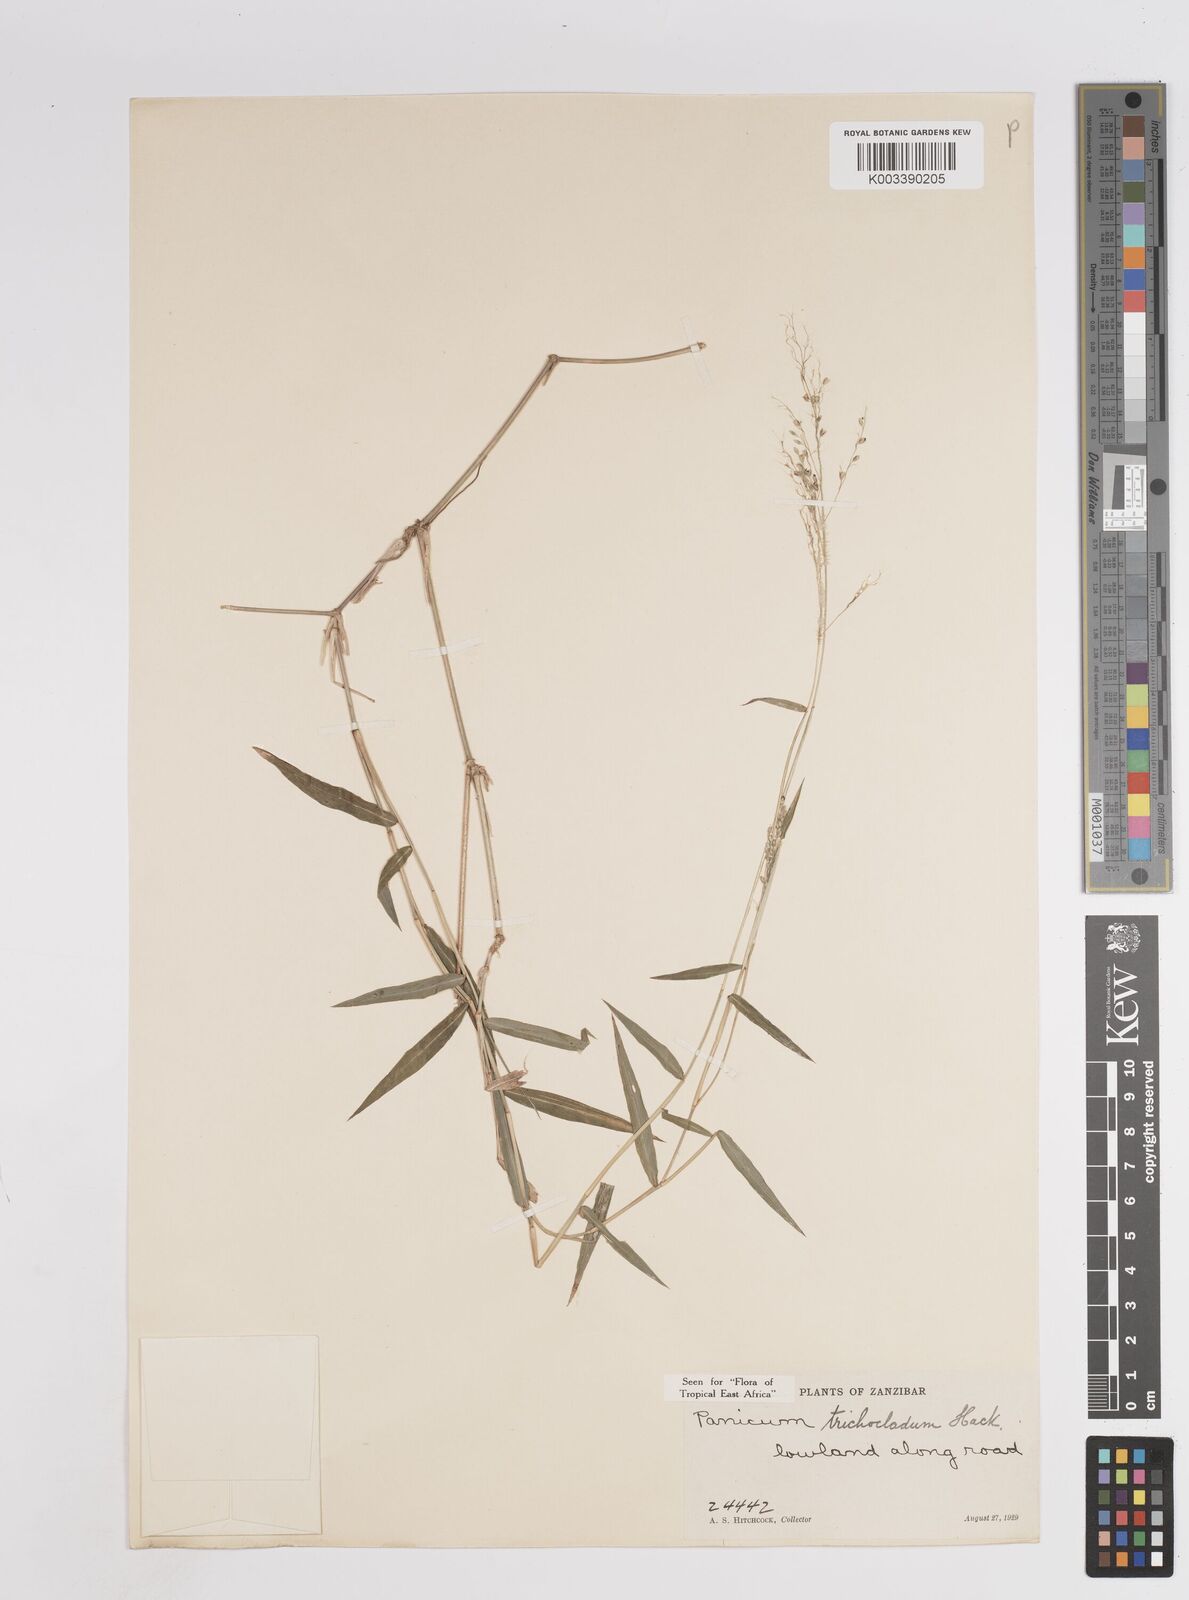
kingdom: Plantae
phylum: Tracheophyta
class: Liliopsida
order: Poales
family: Poaceae
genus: Panicum
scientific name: Panicum trichocladum
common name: Donkey grass
